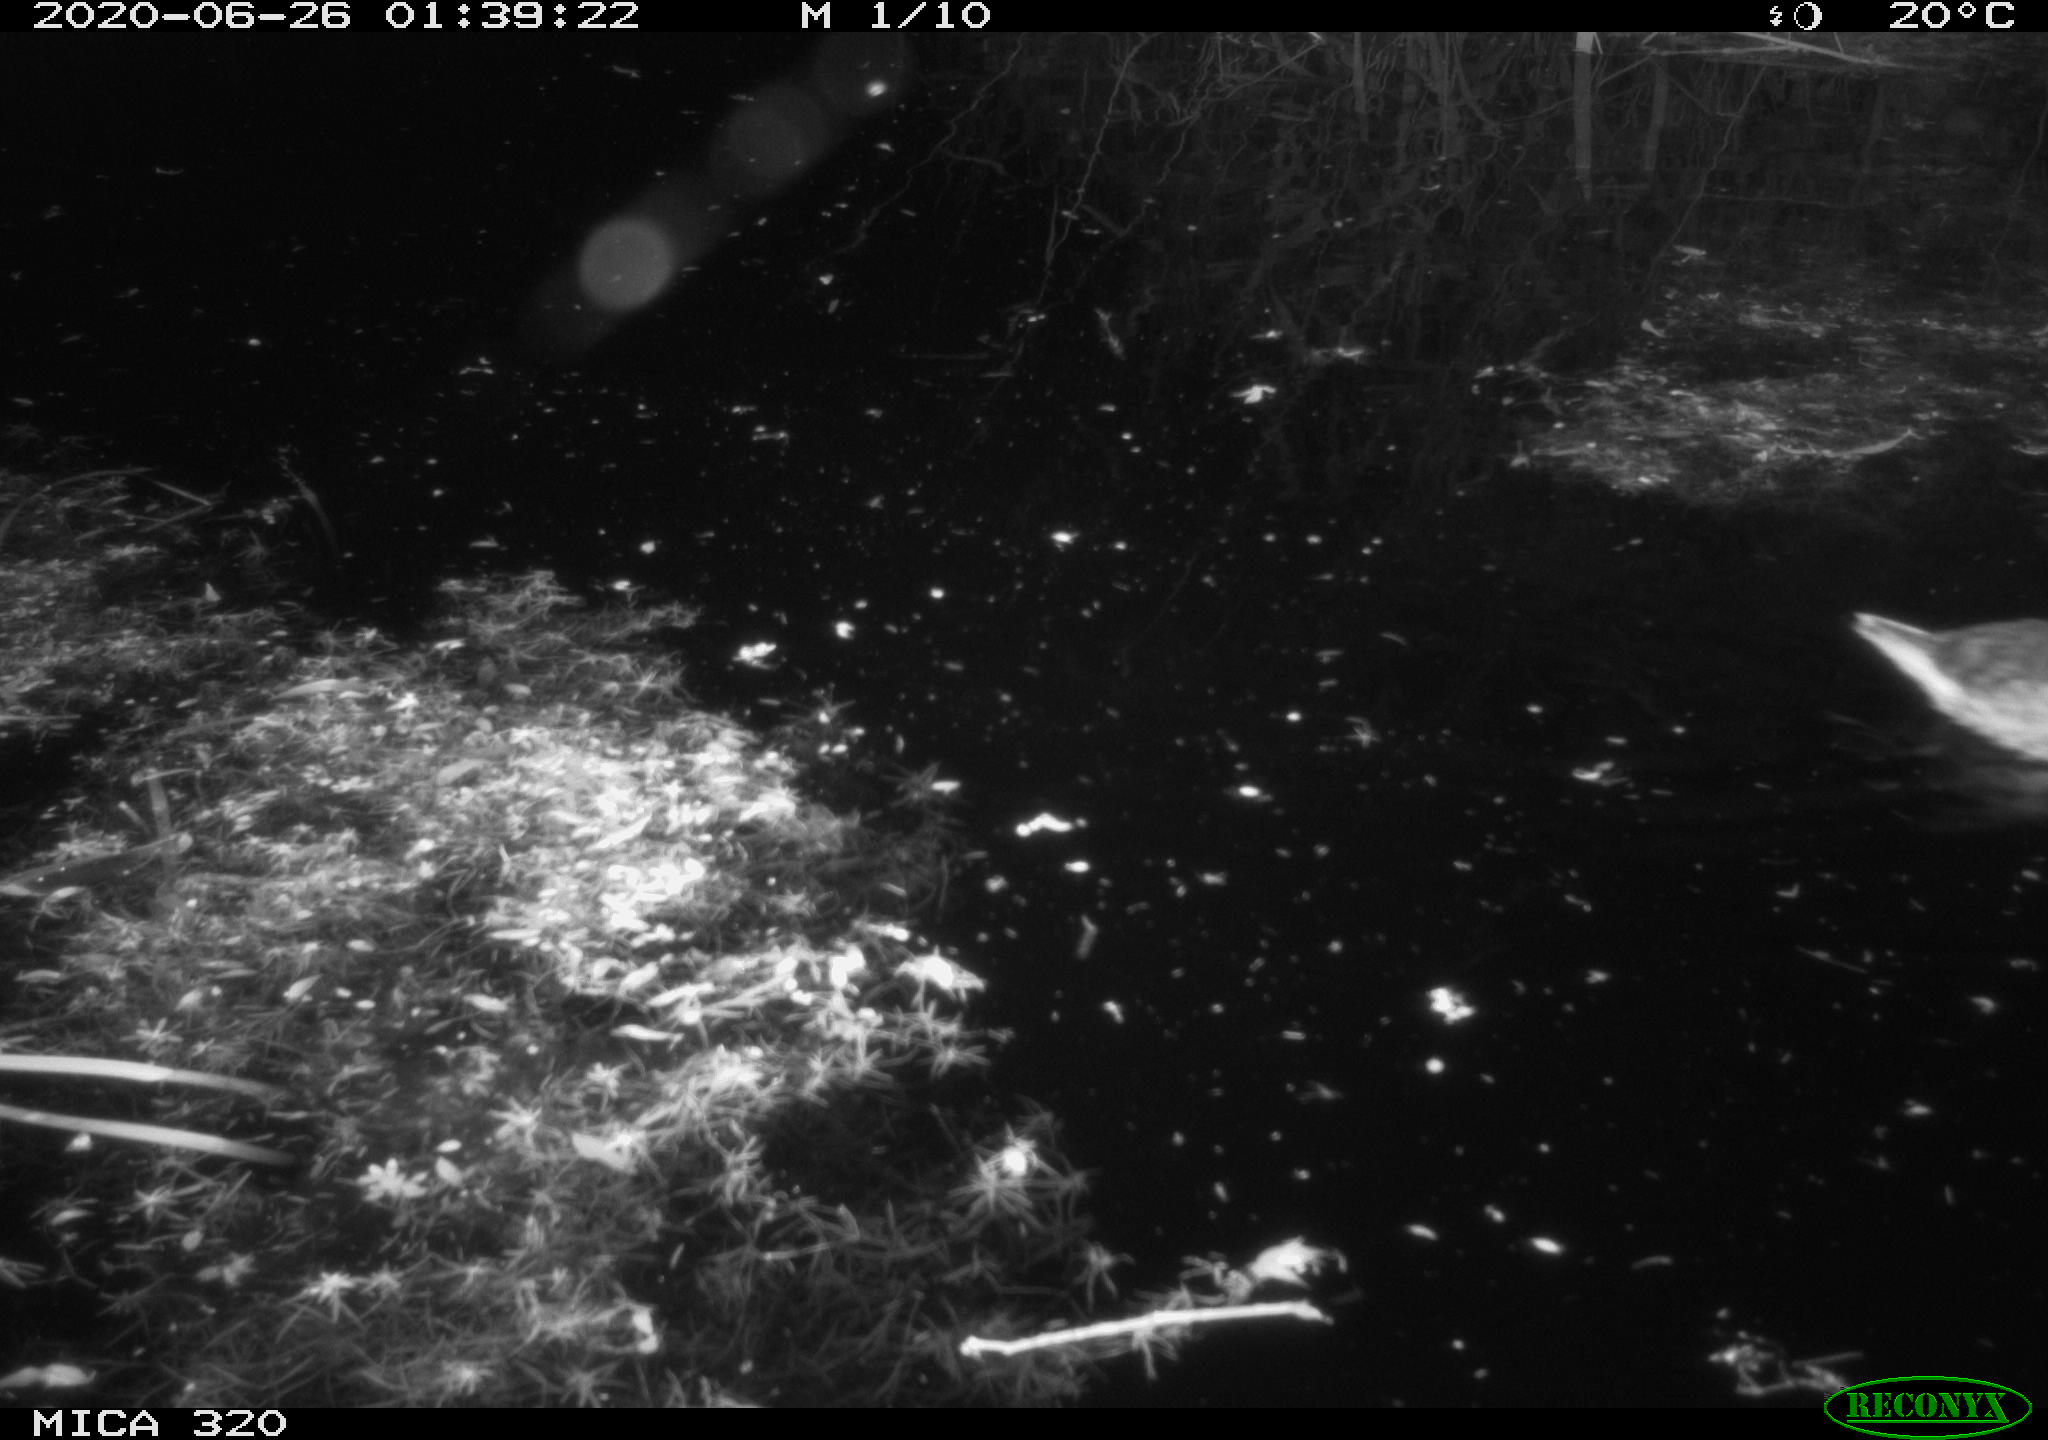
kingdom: Animalia
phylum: Chordata
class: Aves
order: Anseriformes
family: Anatidae
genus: Anas
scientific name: Anas platyrhynchos
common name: Mallard
